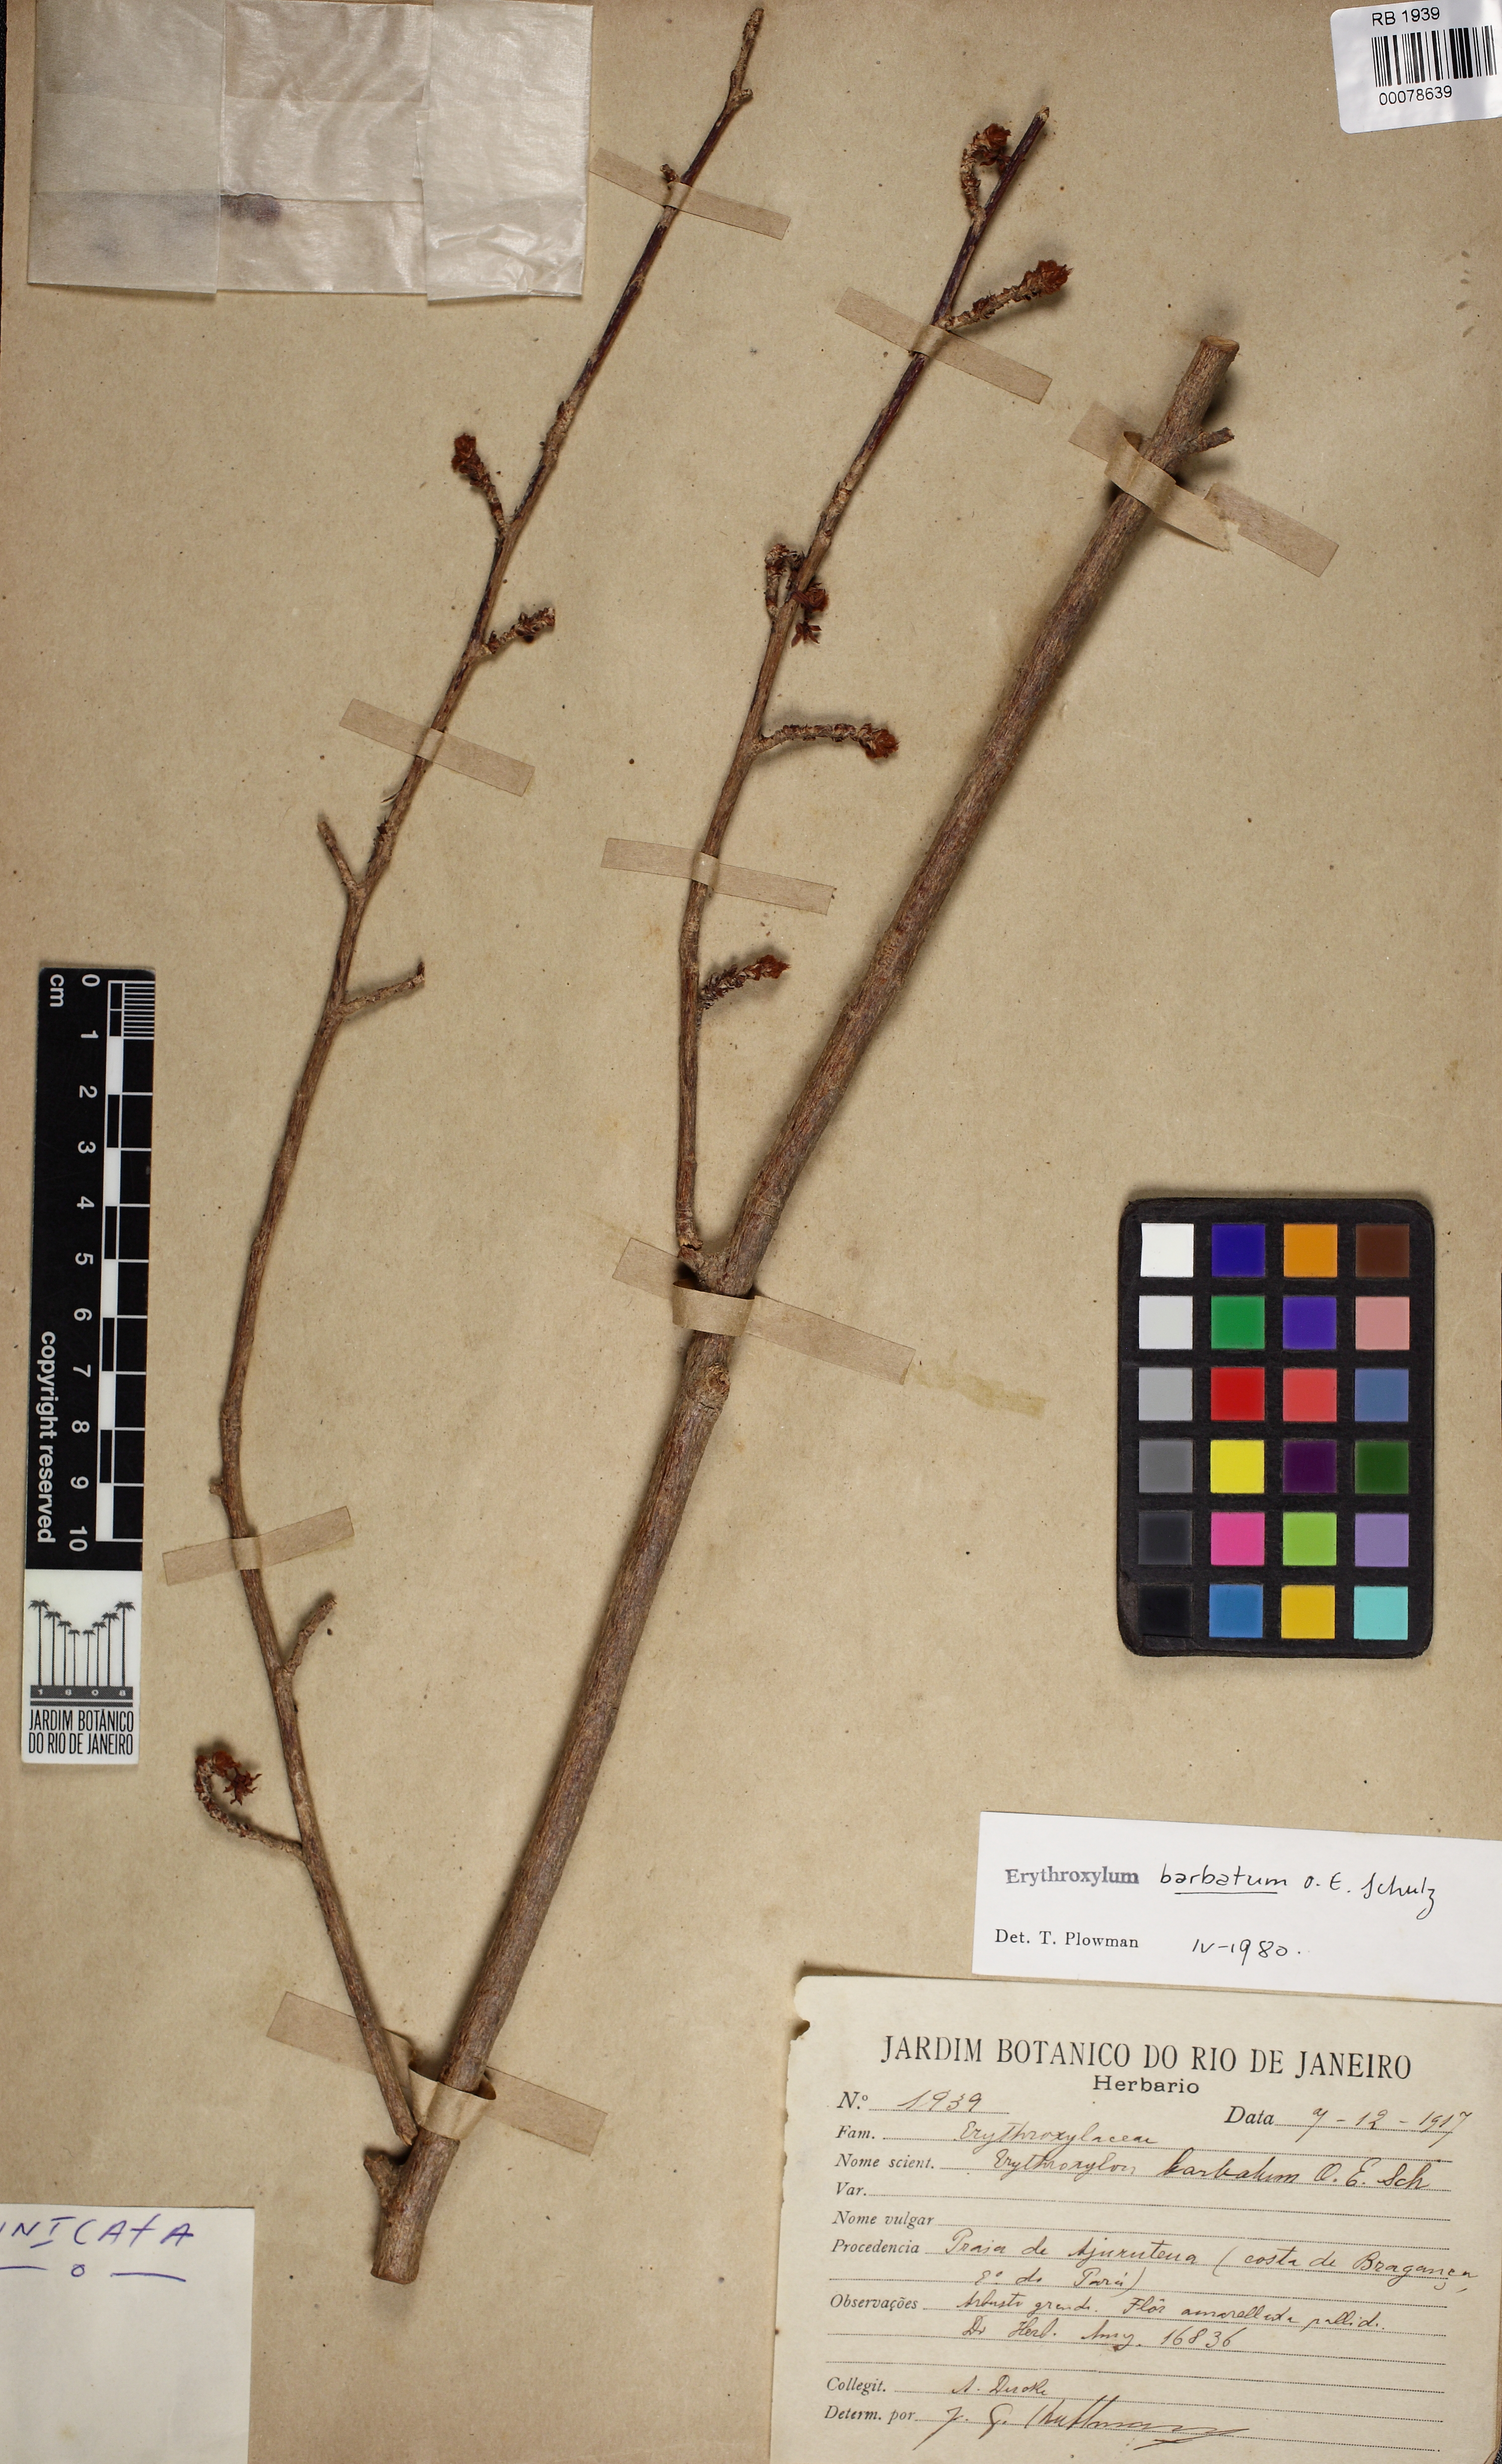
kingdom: Plantae
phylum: Tracheophyta
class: Magnoliopsida
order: Malpighiales
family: Erythroxylaceae
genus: Erythroxylum
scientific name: Erythroxylum barbatum
